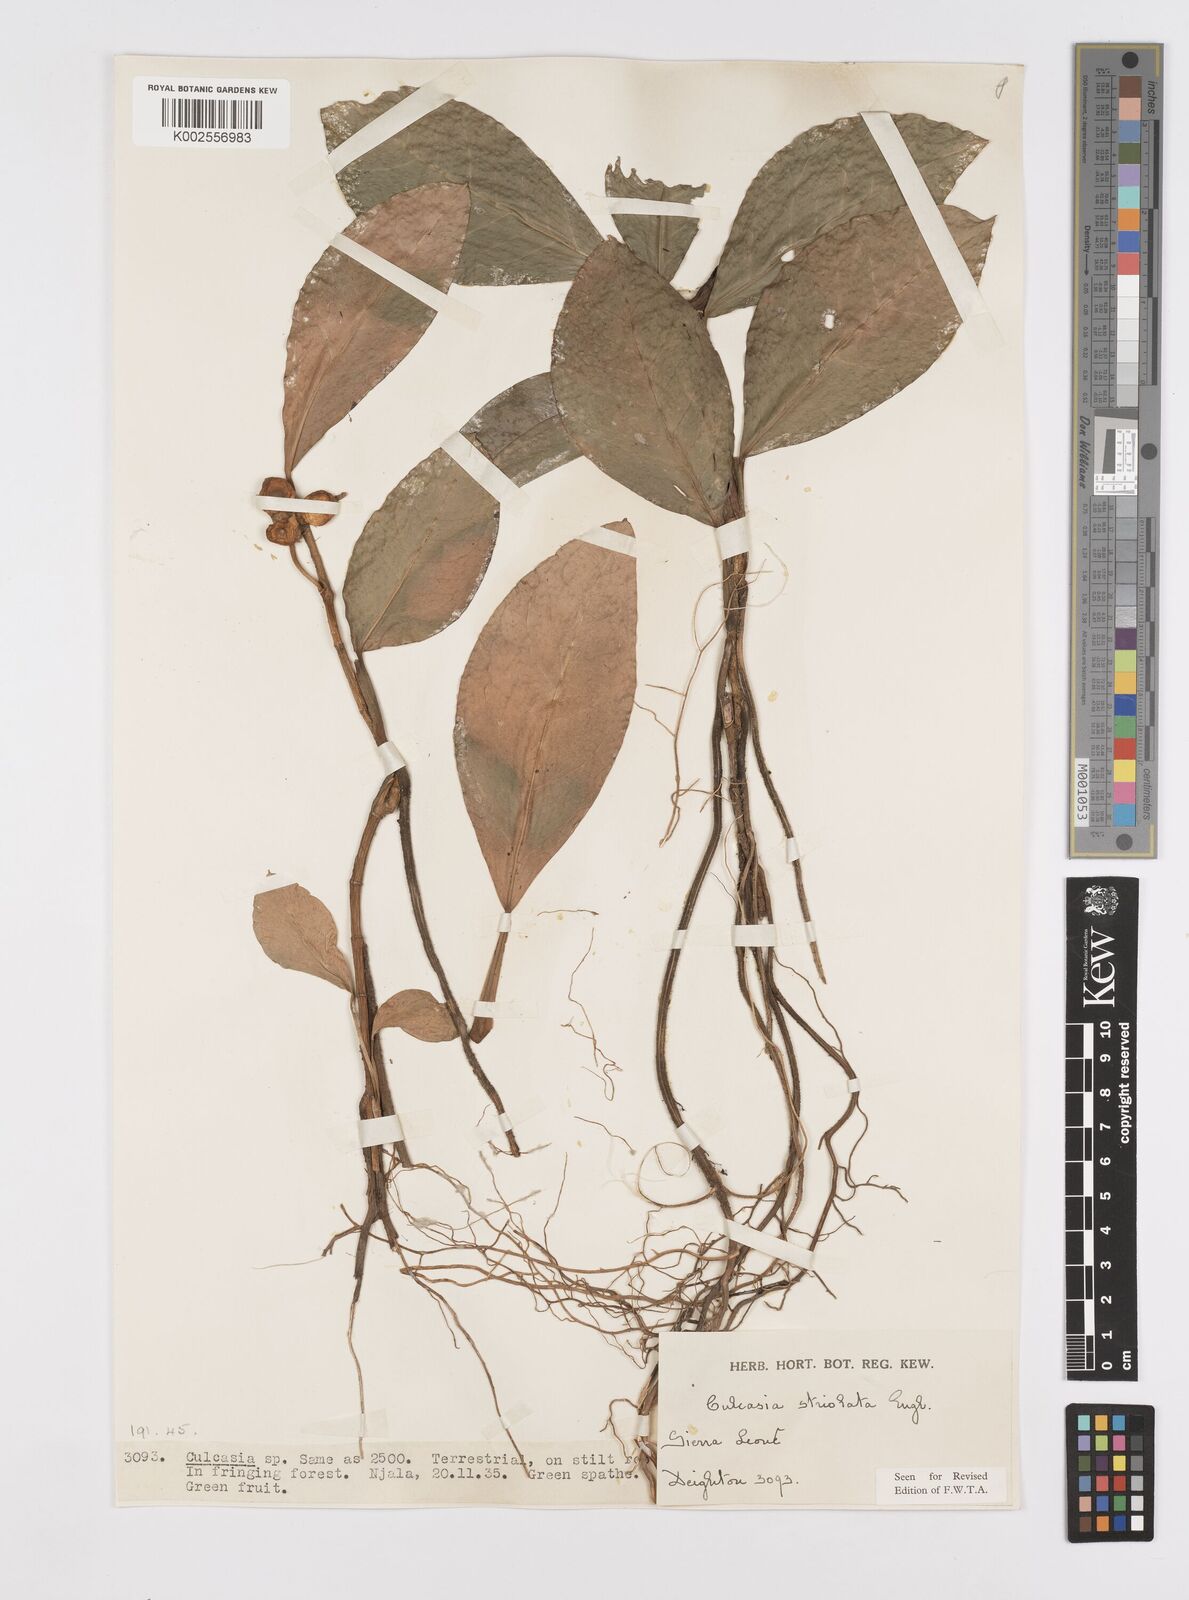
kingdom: Plantae
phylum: Tracheophyta
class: Liliopsida
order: Alismatales
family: Araceae
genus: Culcasia
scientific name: Culcasia striolata
